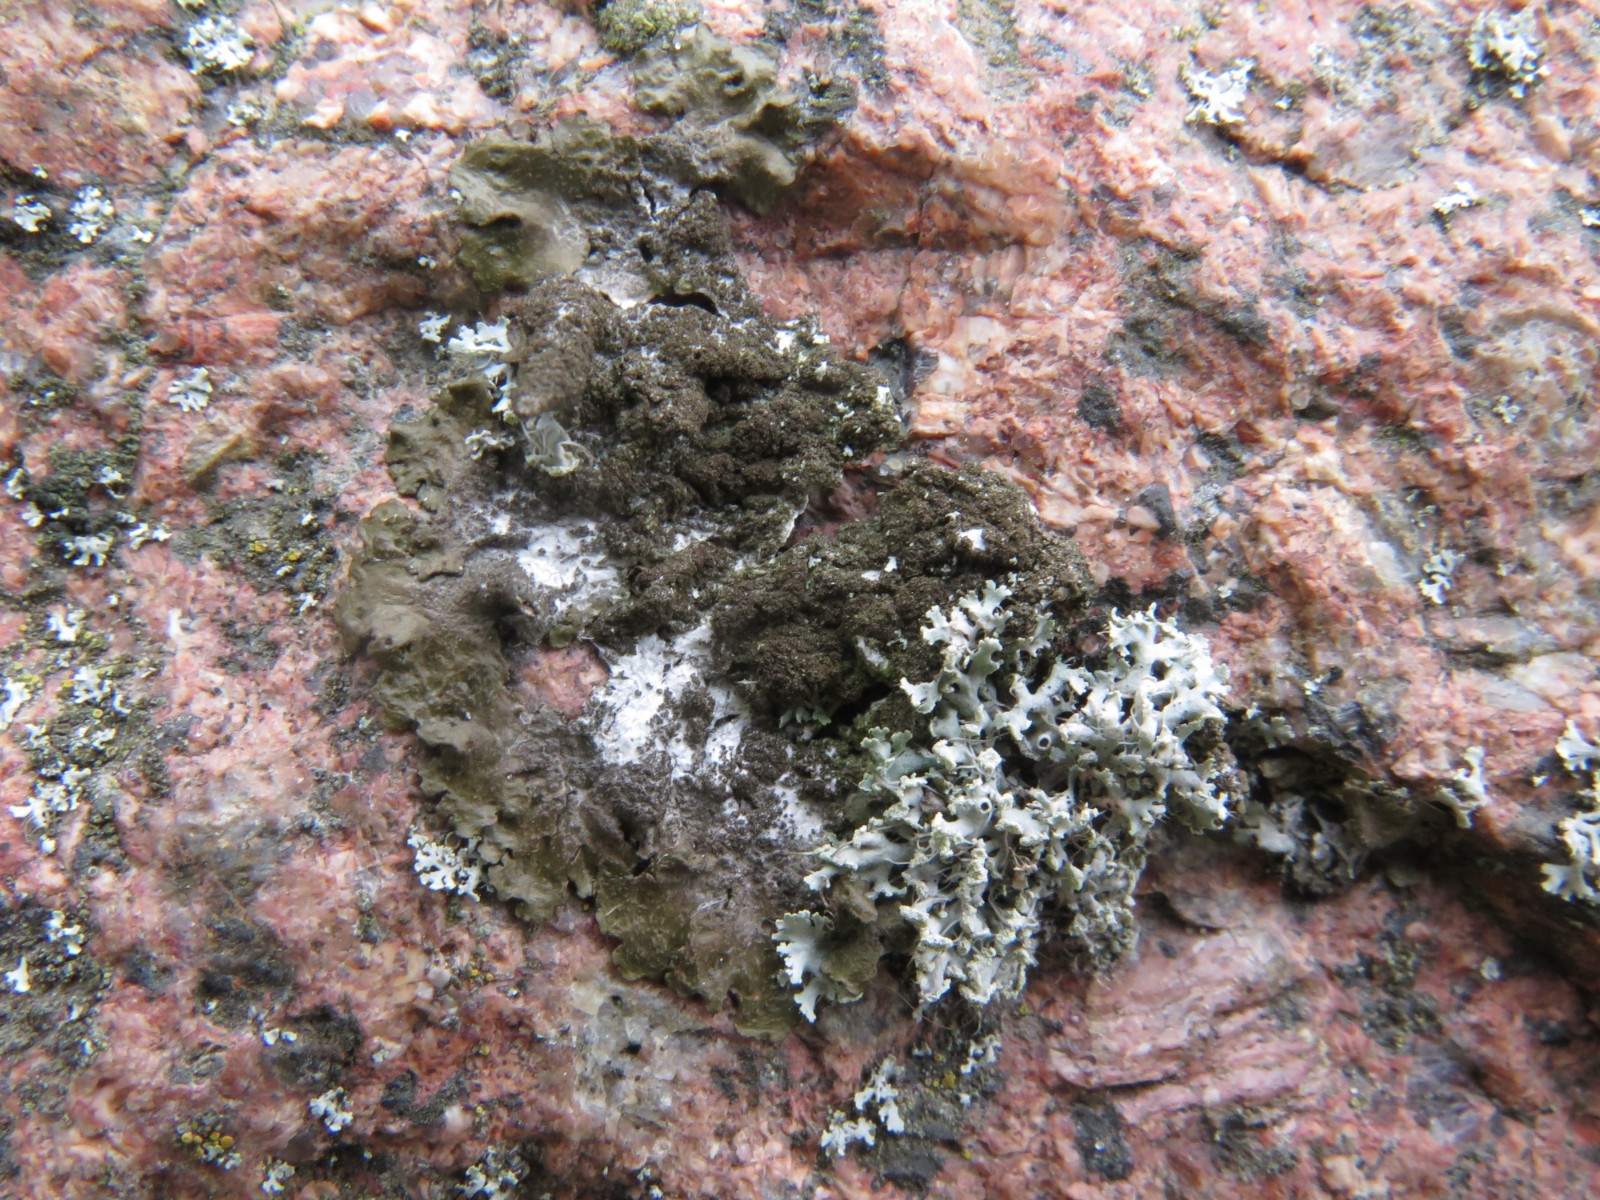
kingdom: Fungi
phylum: Ascomycota
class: Lecanoromycetes
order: Lecanorales
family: Parmeliaceae
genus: Melanelixia
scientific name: Melanelixia fuliginosa
